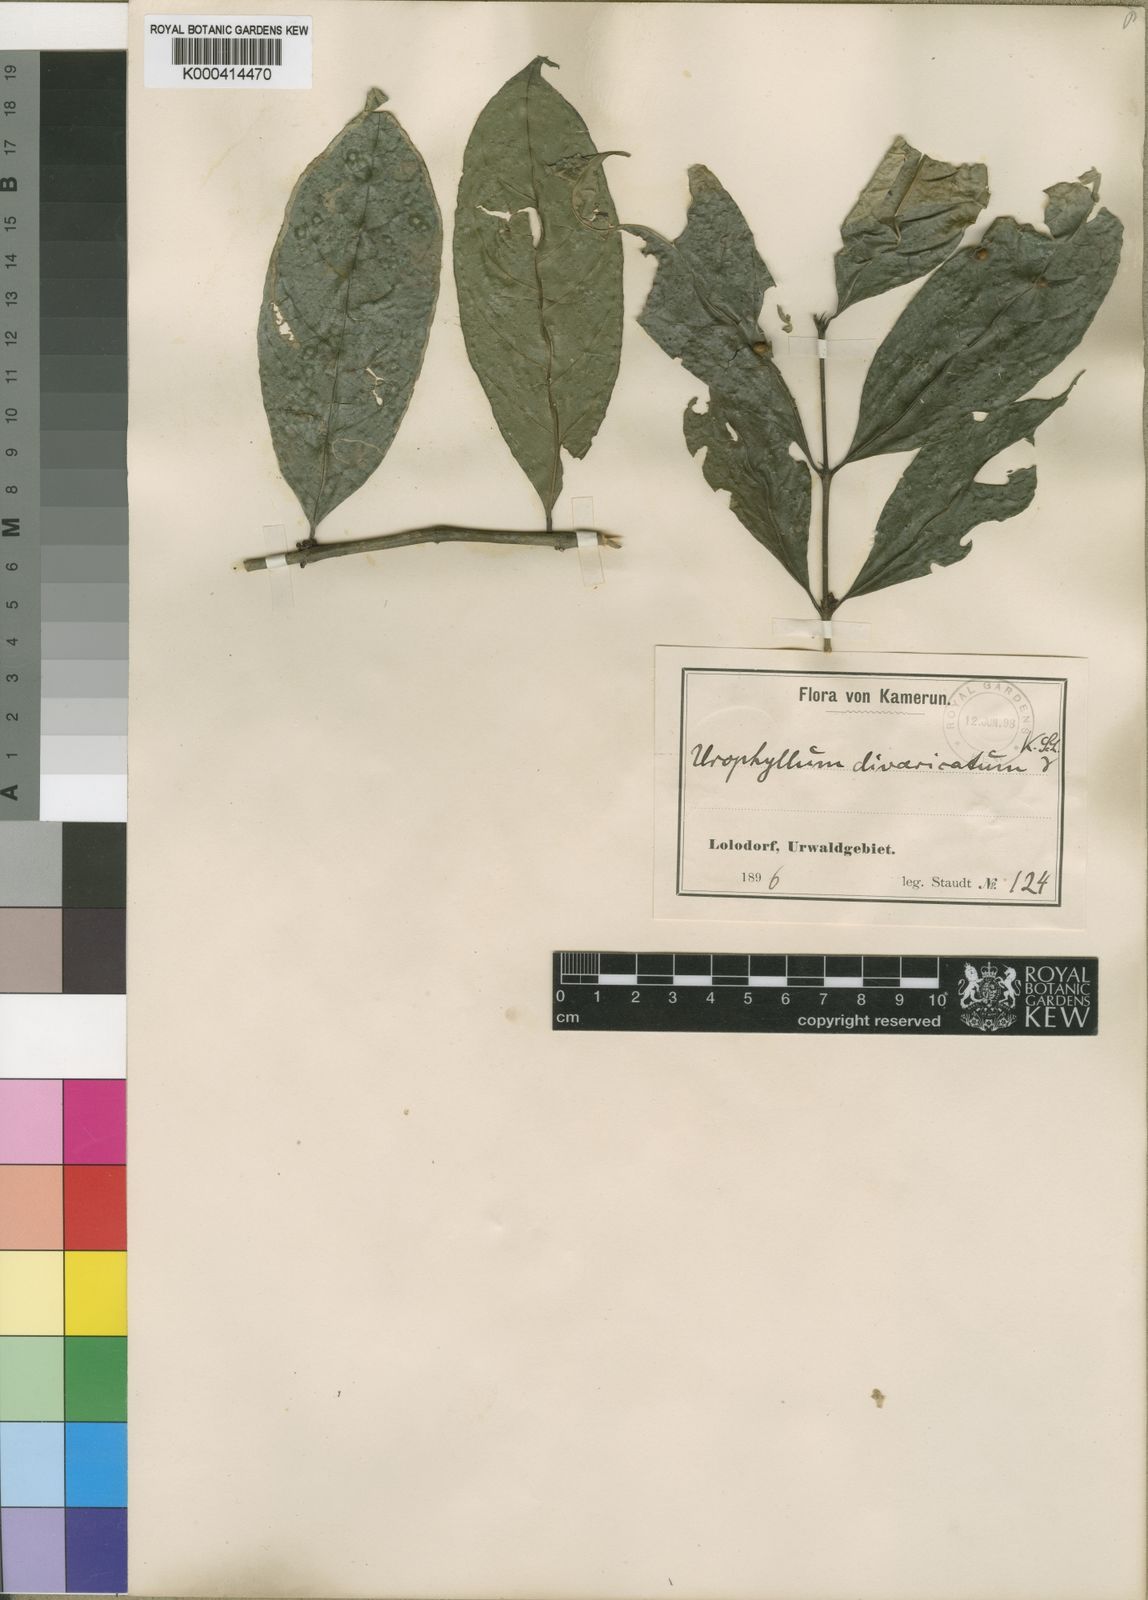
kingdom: Plantae
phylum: Tracheophyta
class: Magnoliopsida
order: Gentianales
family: Rubiaceae
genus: Pauridiantha
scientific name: Pauridiantha divaricata
